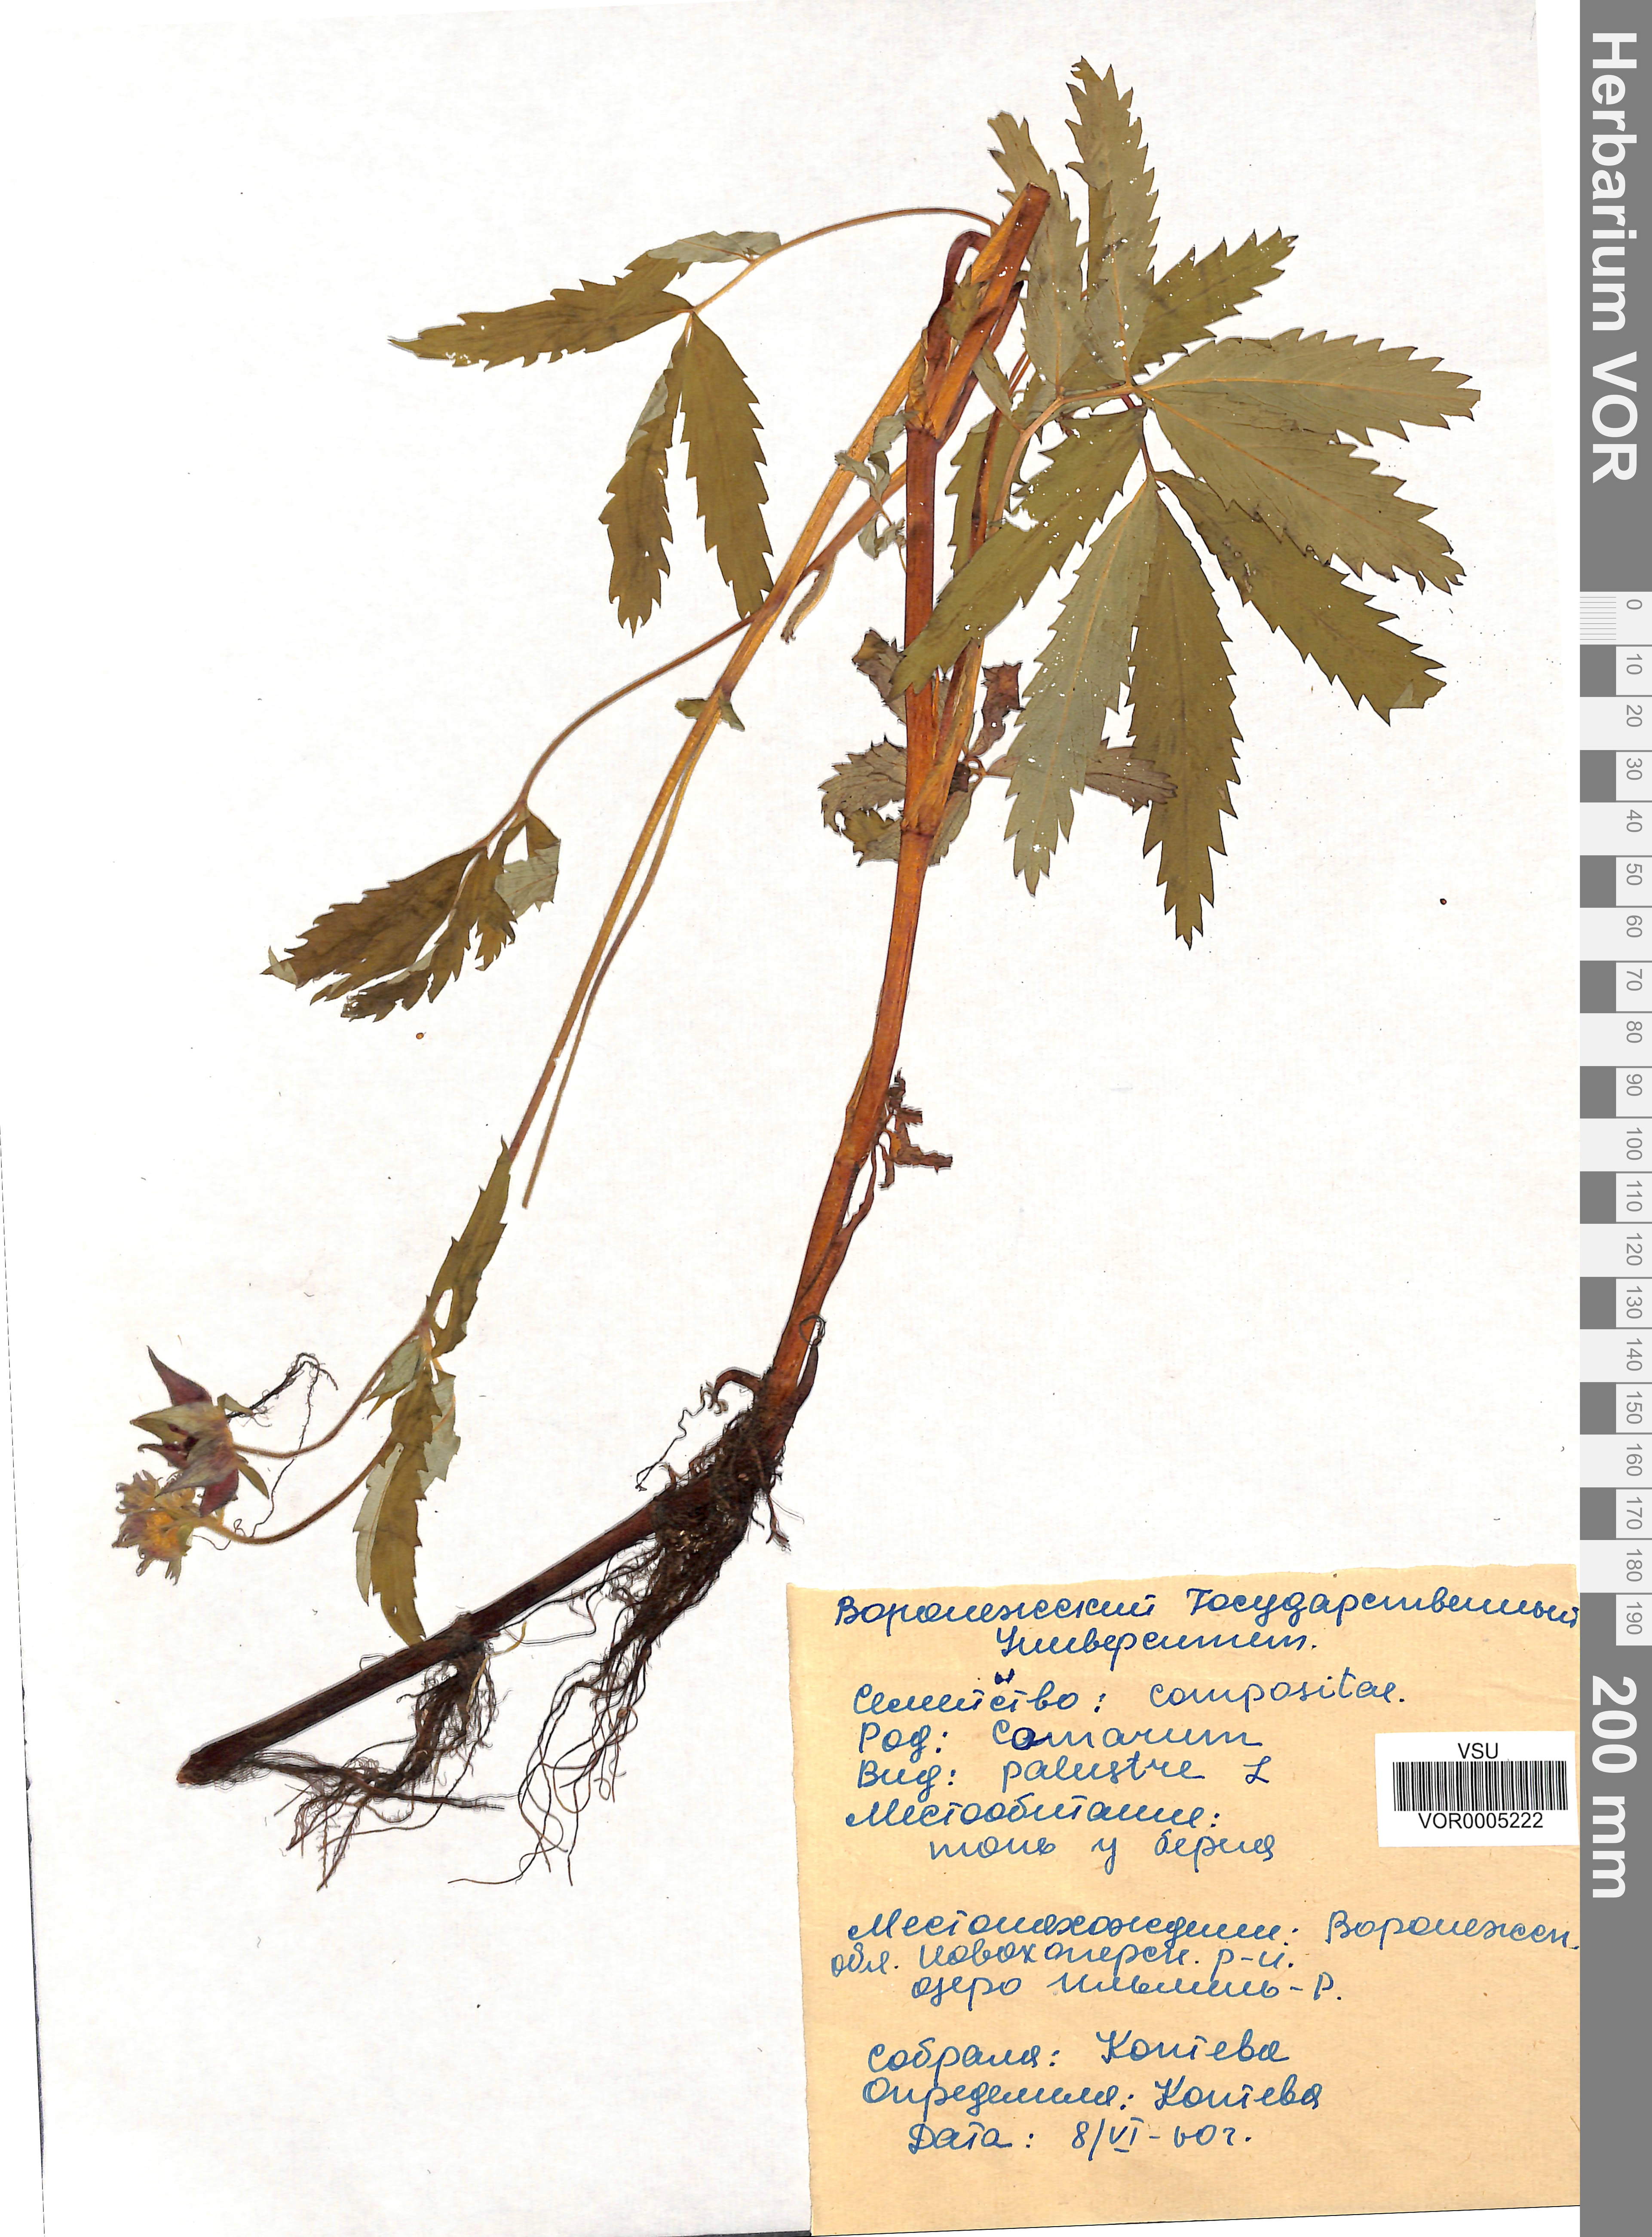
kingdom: Plantae
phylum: Tracheophyta
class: Magnoliopsida
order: Rosales
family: Rosaceae
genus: Comarum
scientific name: Comarum palustre
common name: Marsh cinquefoil
